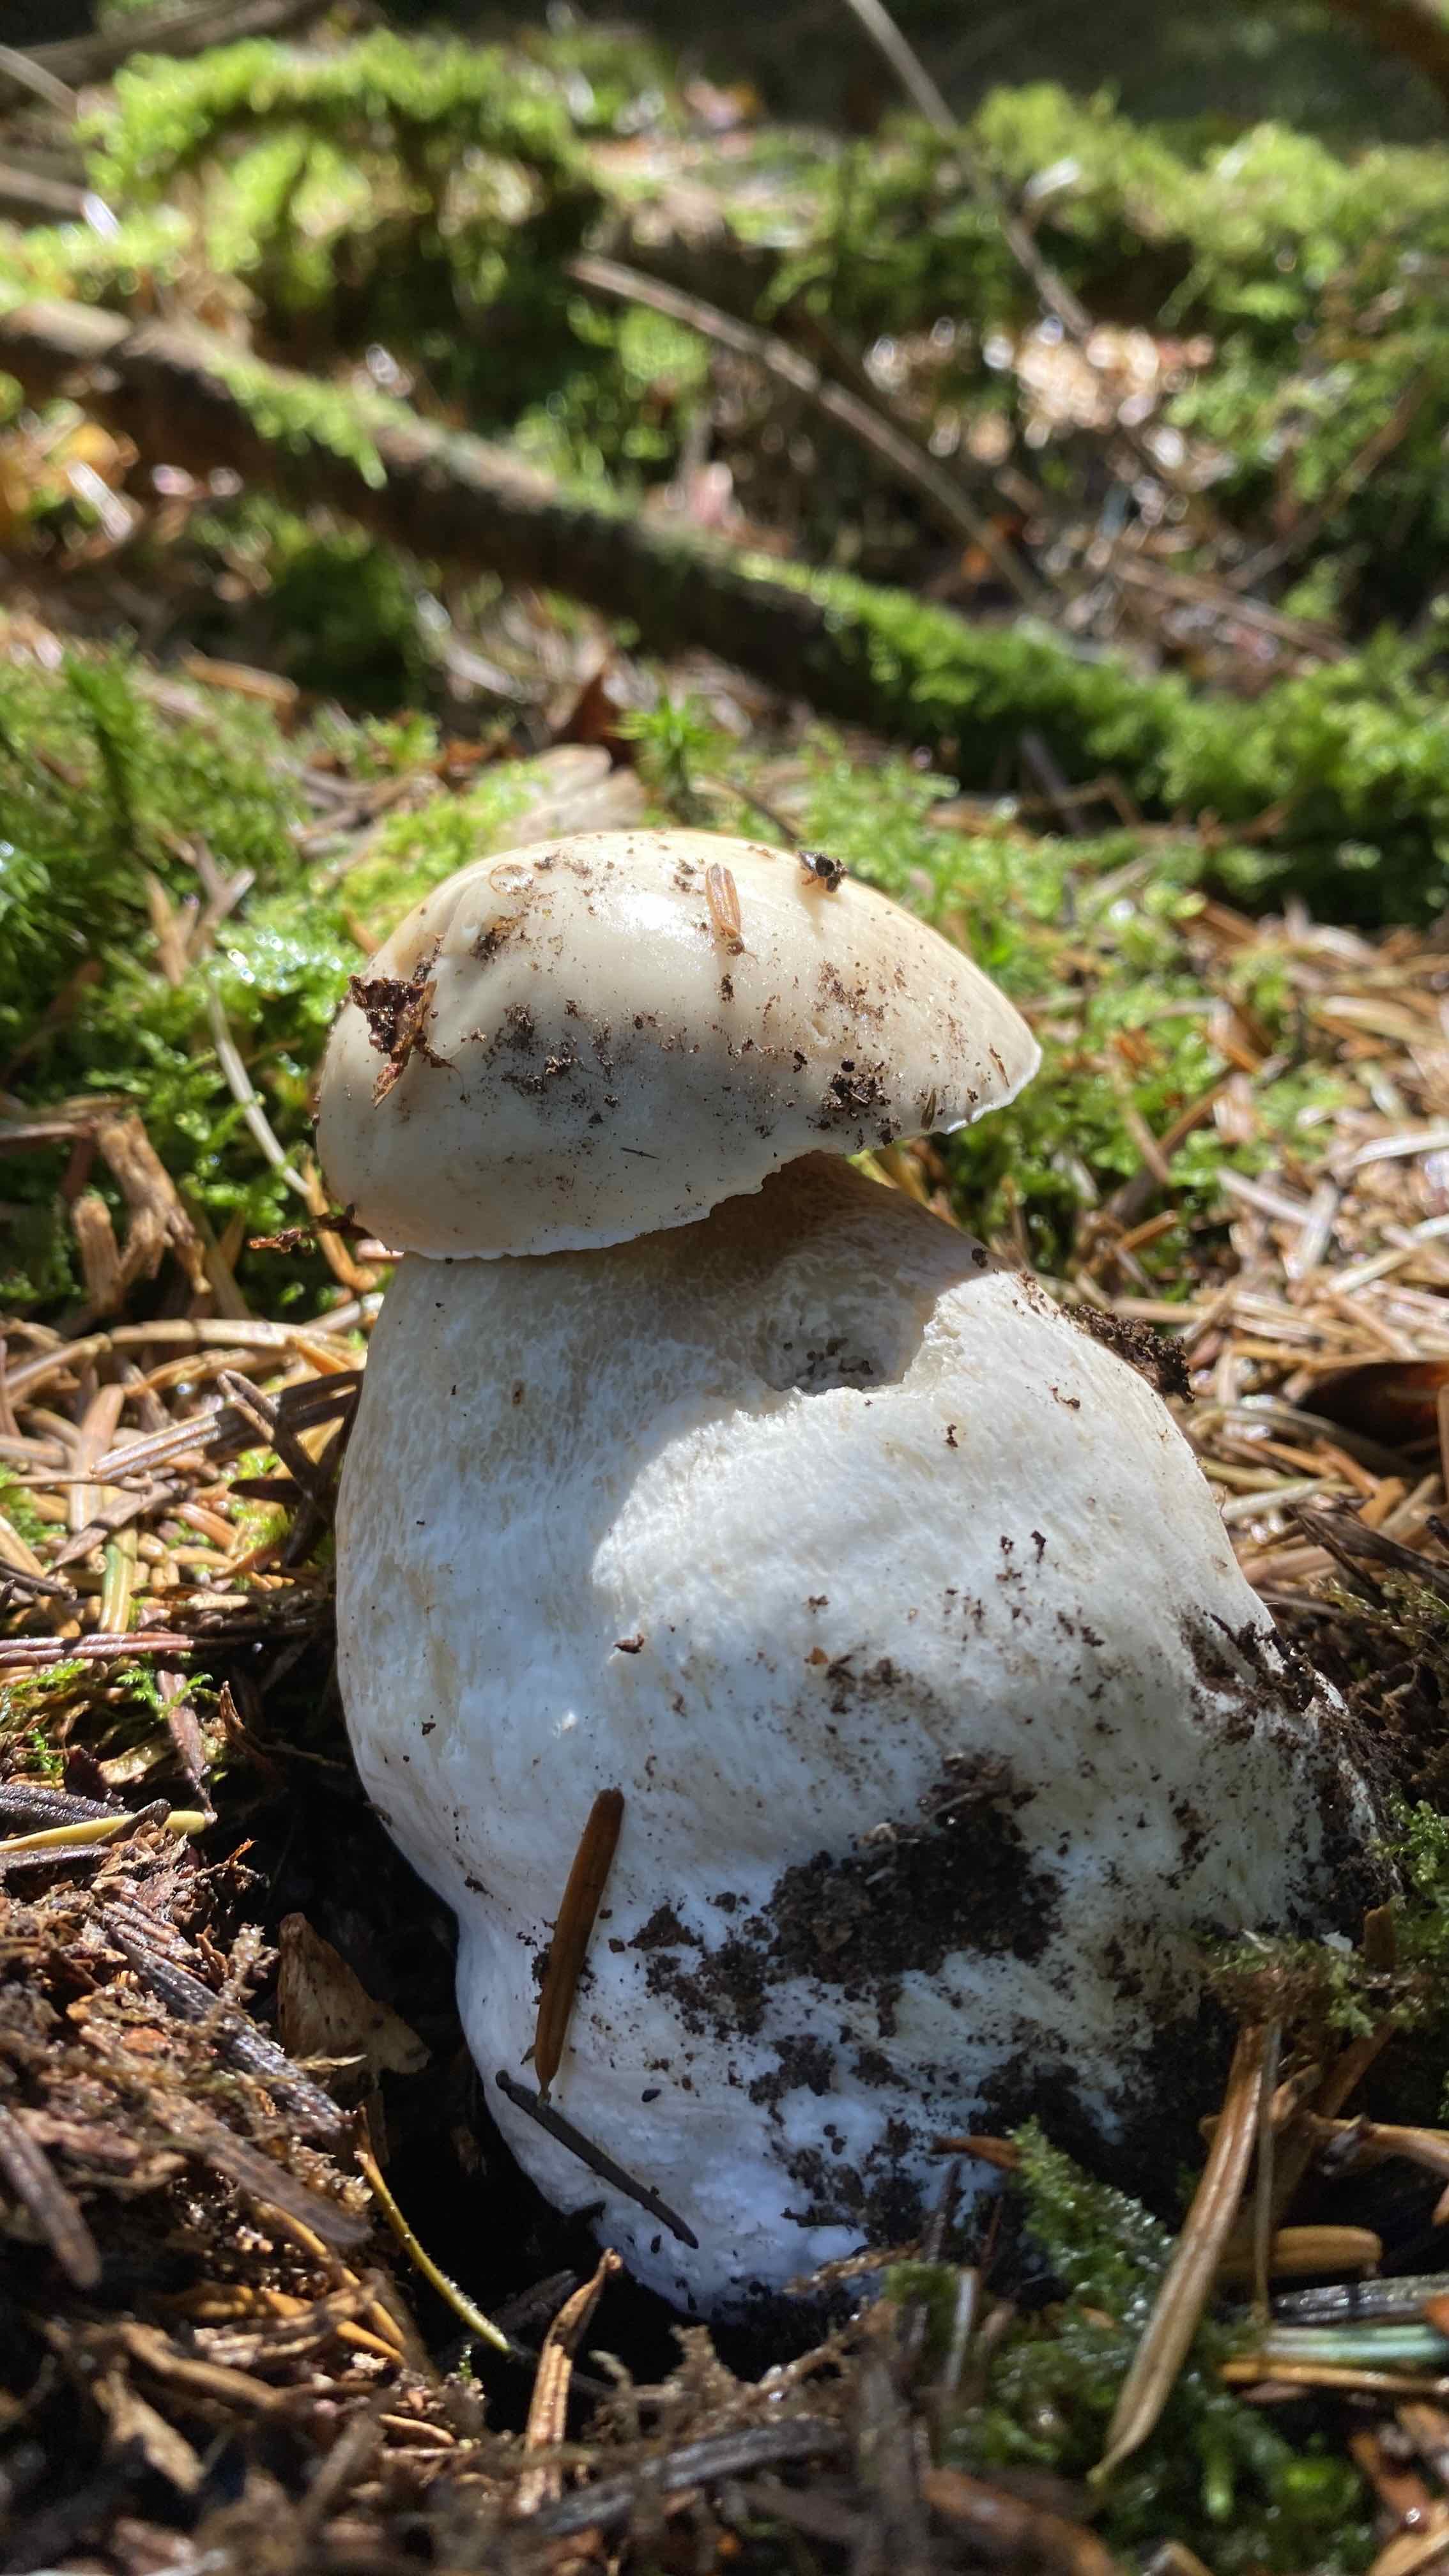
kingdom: Fungi
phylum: Basidiomycota
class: Agaricomycetes
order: Boletales
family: Boletaceae
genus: Boletus
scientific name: Boletus edulis
